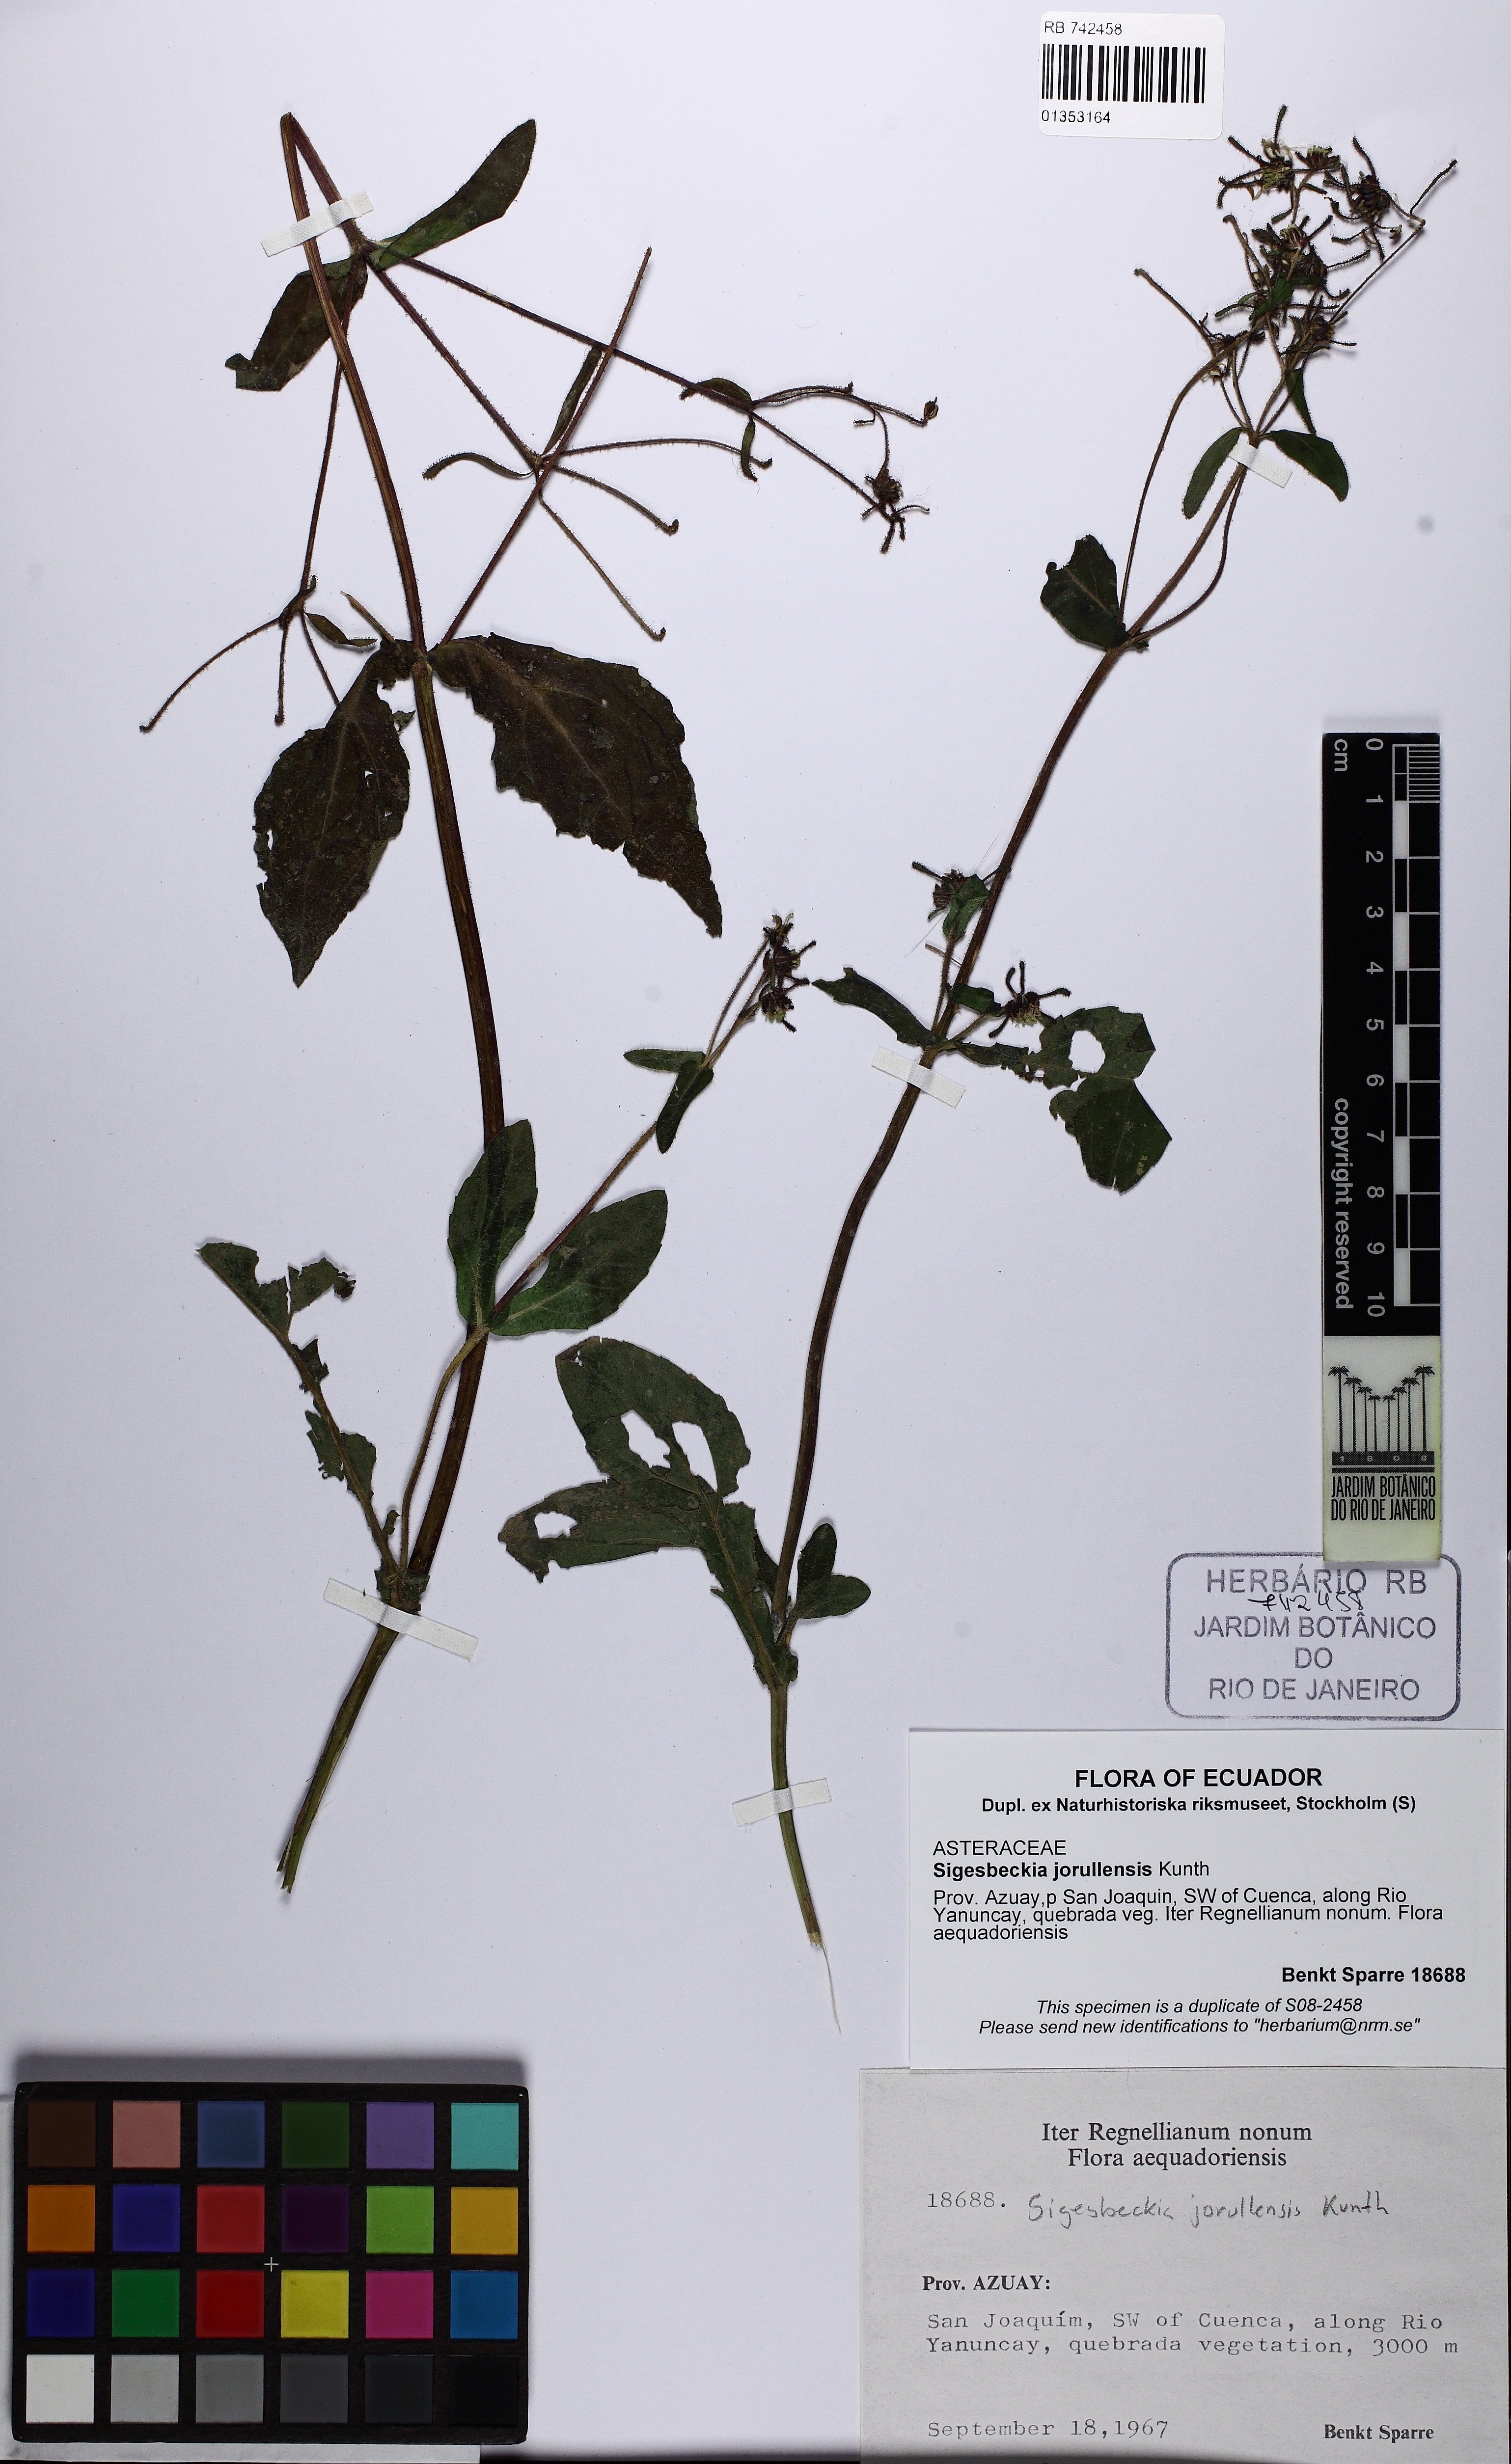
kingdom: Plantae
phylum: Tracheophyta
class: Magnoliopsida
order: Asterales
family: Asteraceae
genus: Sigesbeckia
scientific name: Sigesbeckia jorullensis
